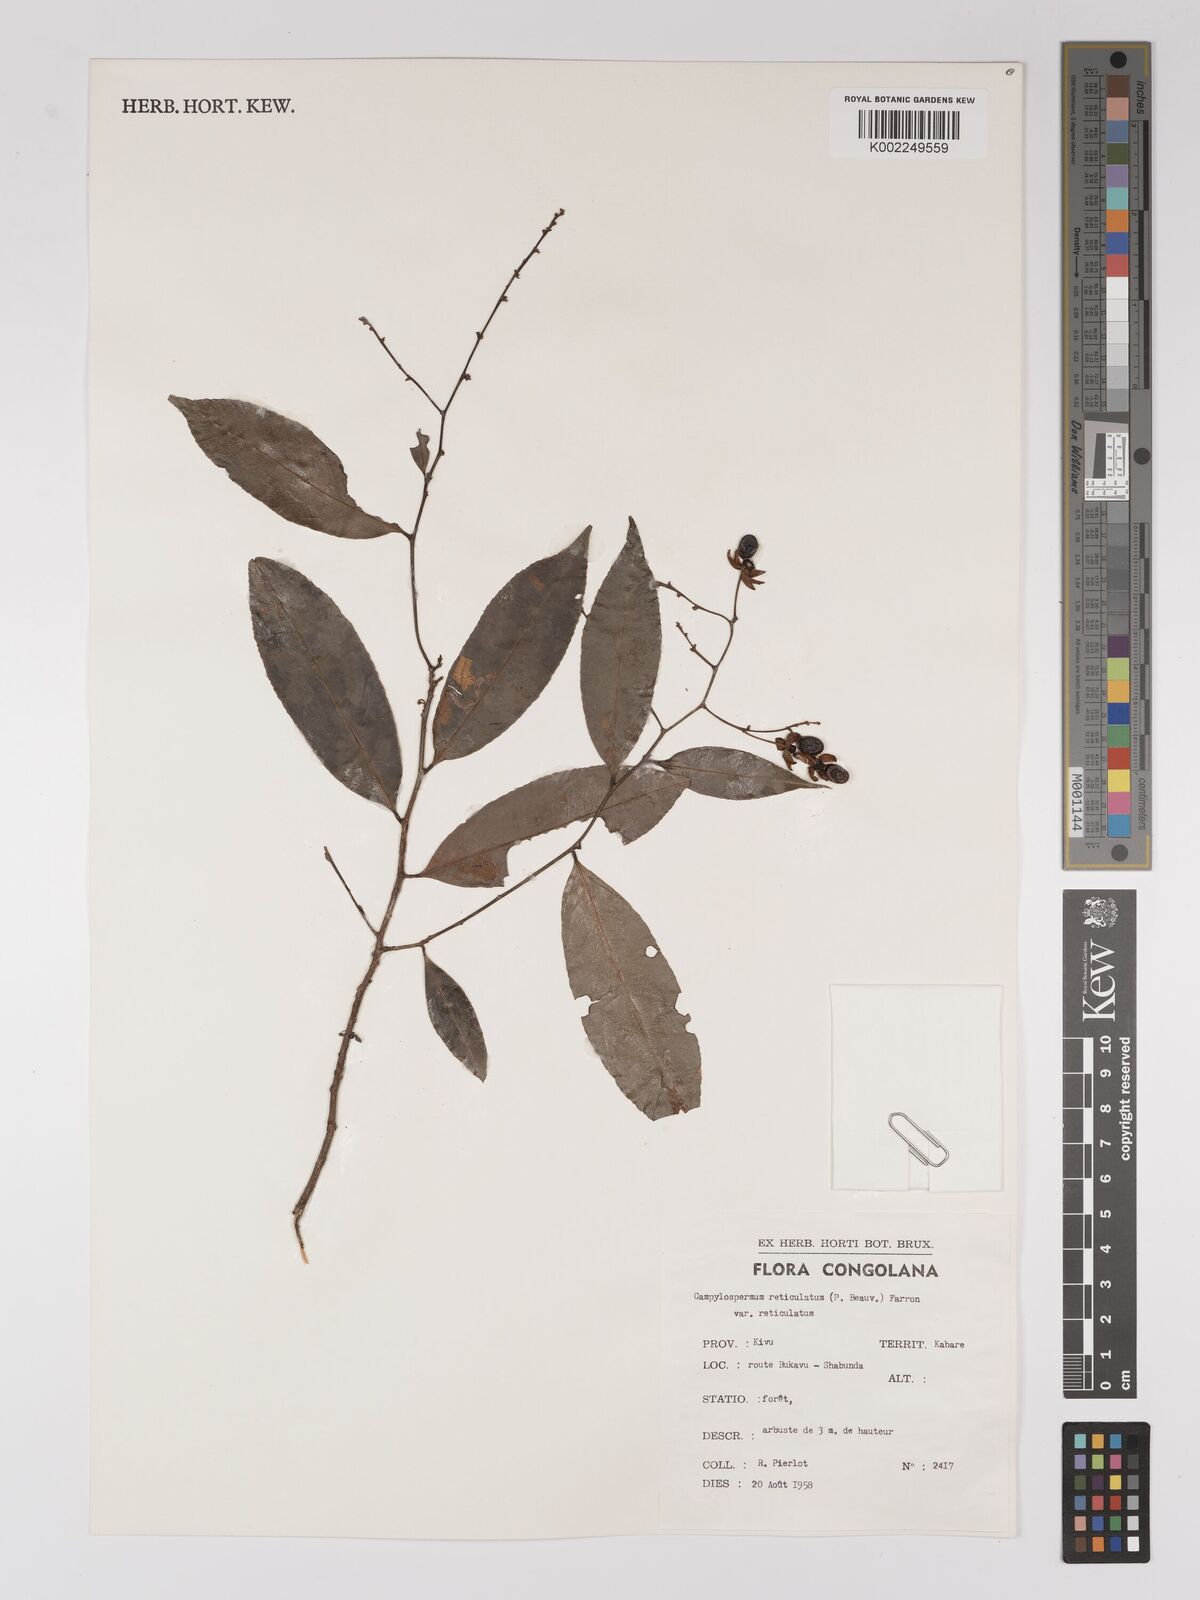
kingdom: Plantae
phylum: Tracheophyta
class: Magnoliopsida
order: Malpighiales
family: Ochnaceae
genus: Campylospermum
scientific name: Campylospermum reticulatum
